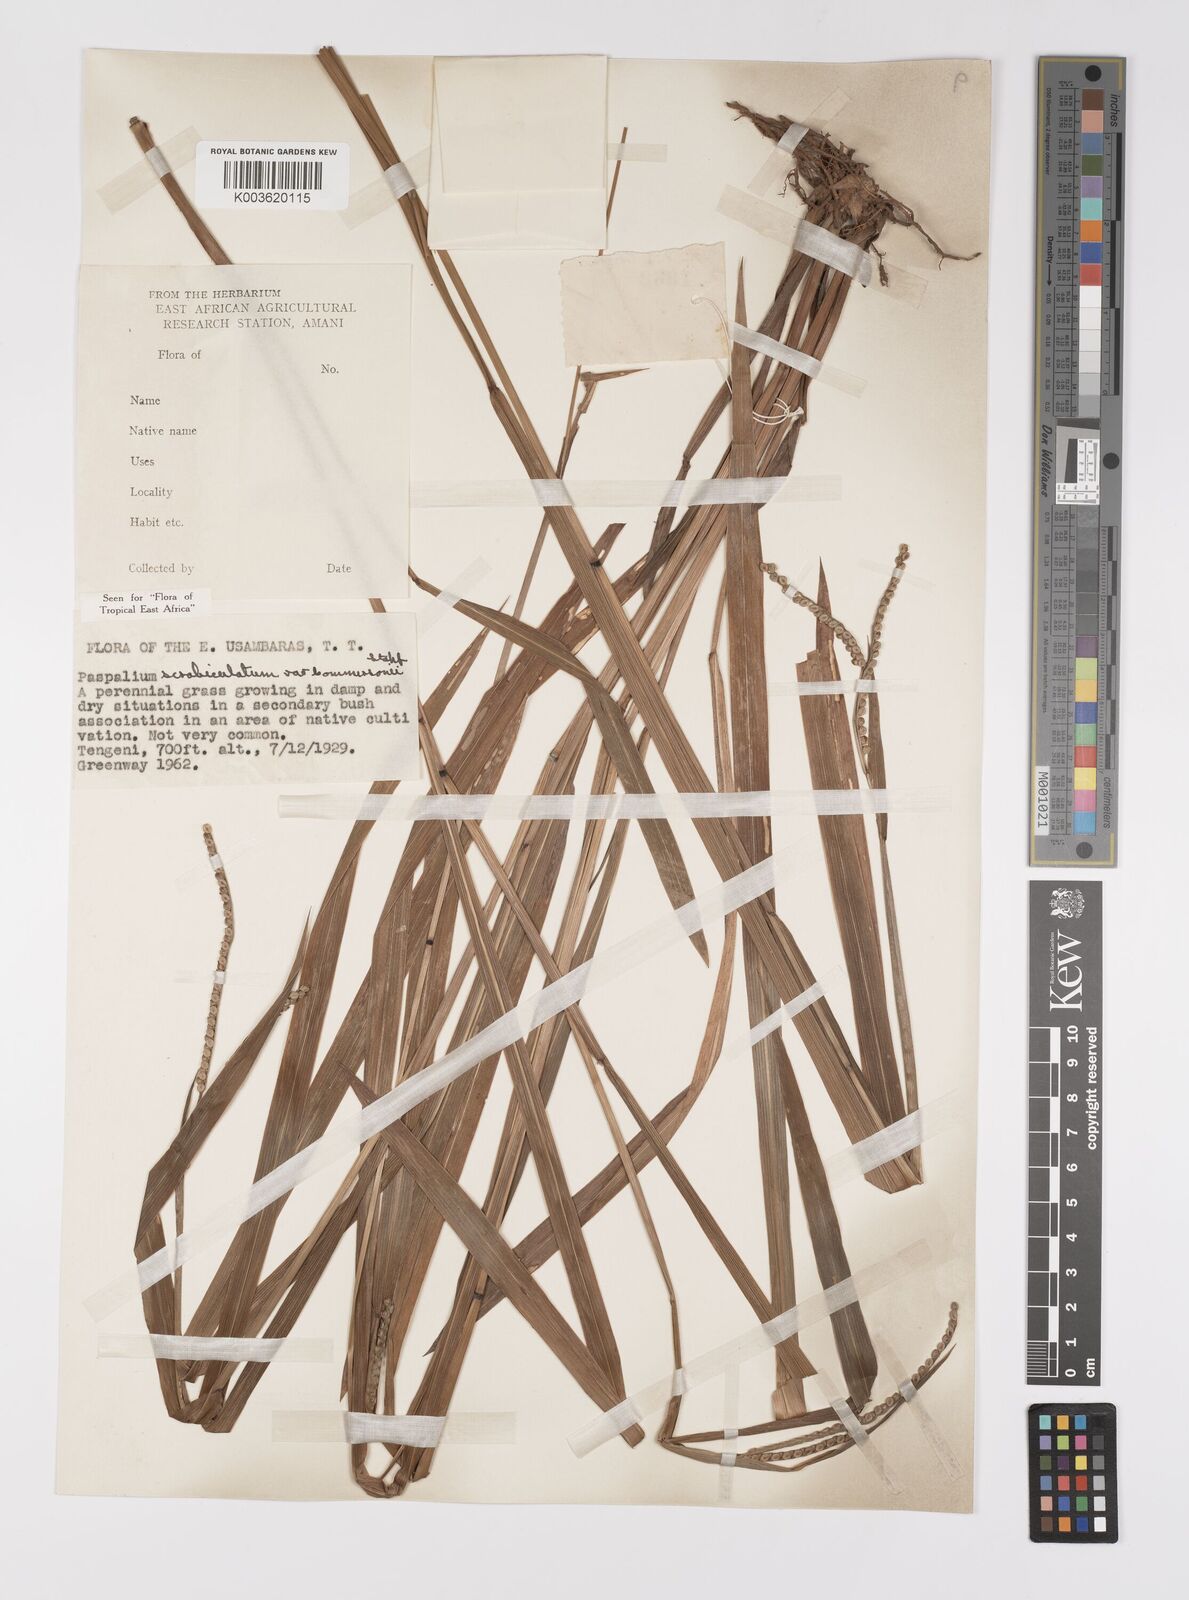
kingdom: Plantae
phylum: Tracheophyta
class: Liliopsida
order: Poales
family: Poaceae
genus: Paspalum
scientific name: Paspalum scrobiculatum
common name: Kodo millet
